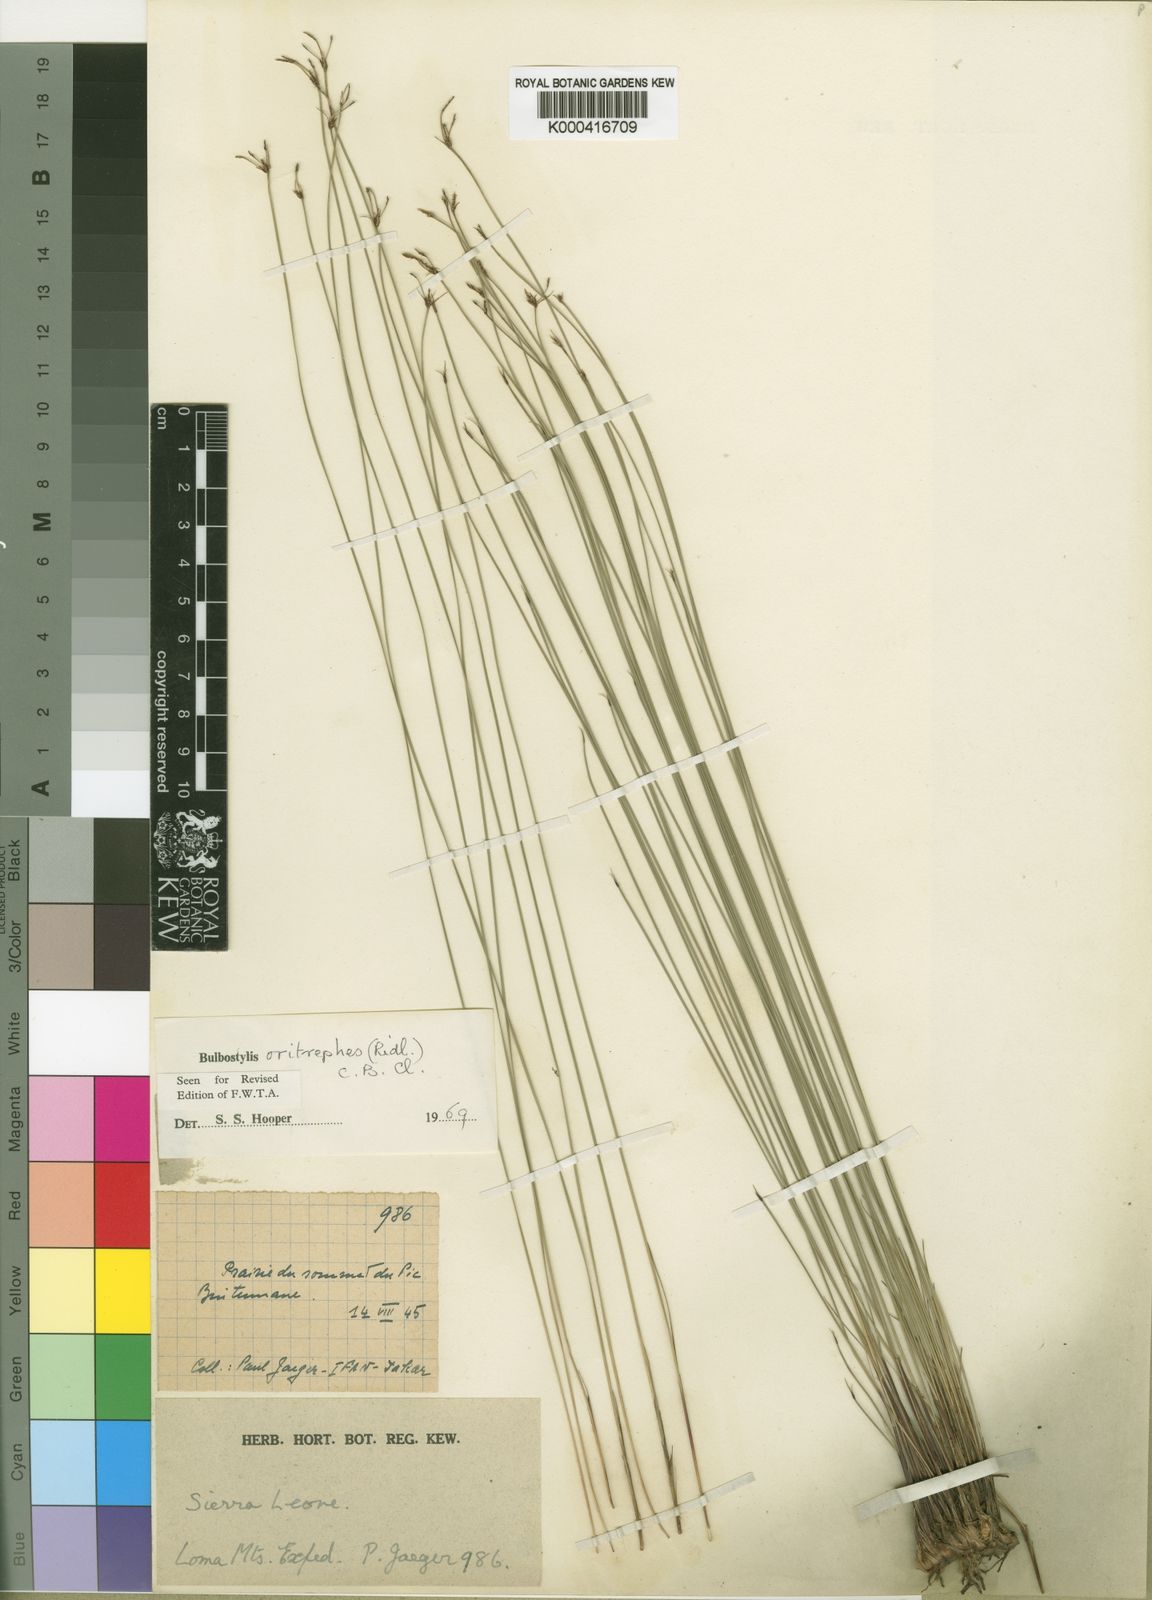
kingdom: Plantae
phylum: Tracheophyta
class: Liliopsida
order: Poales
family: Cyperaceae
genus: Bulbostylis
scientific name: Bulbostylis oritrephes
